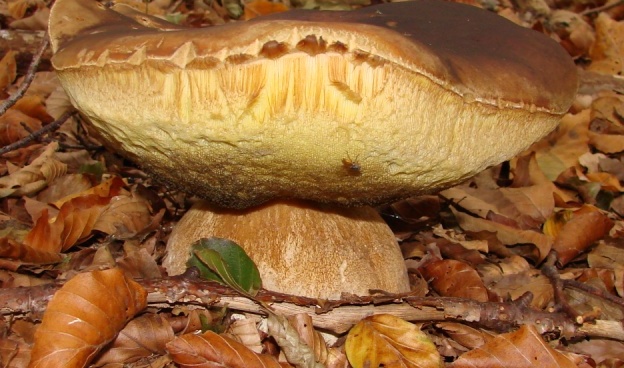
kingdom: Fungi
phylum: Basidiomycota
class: Agaricomycetes
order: Boletales
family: Boletaceae
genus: Boletus
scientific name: Boletus edulis
